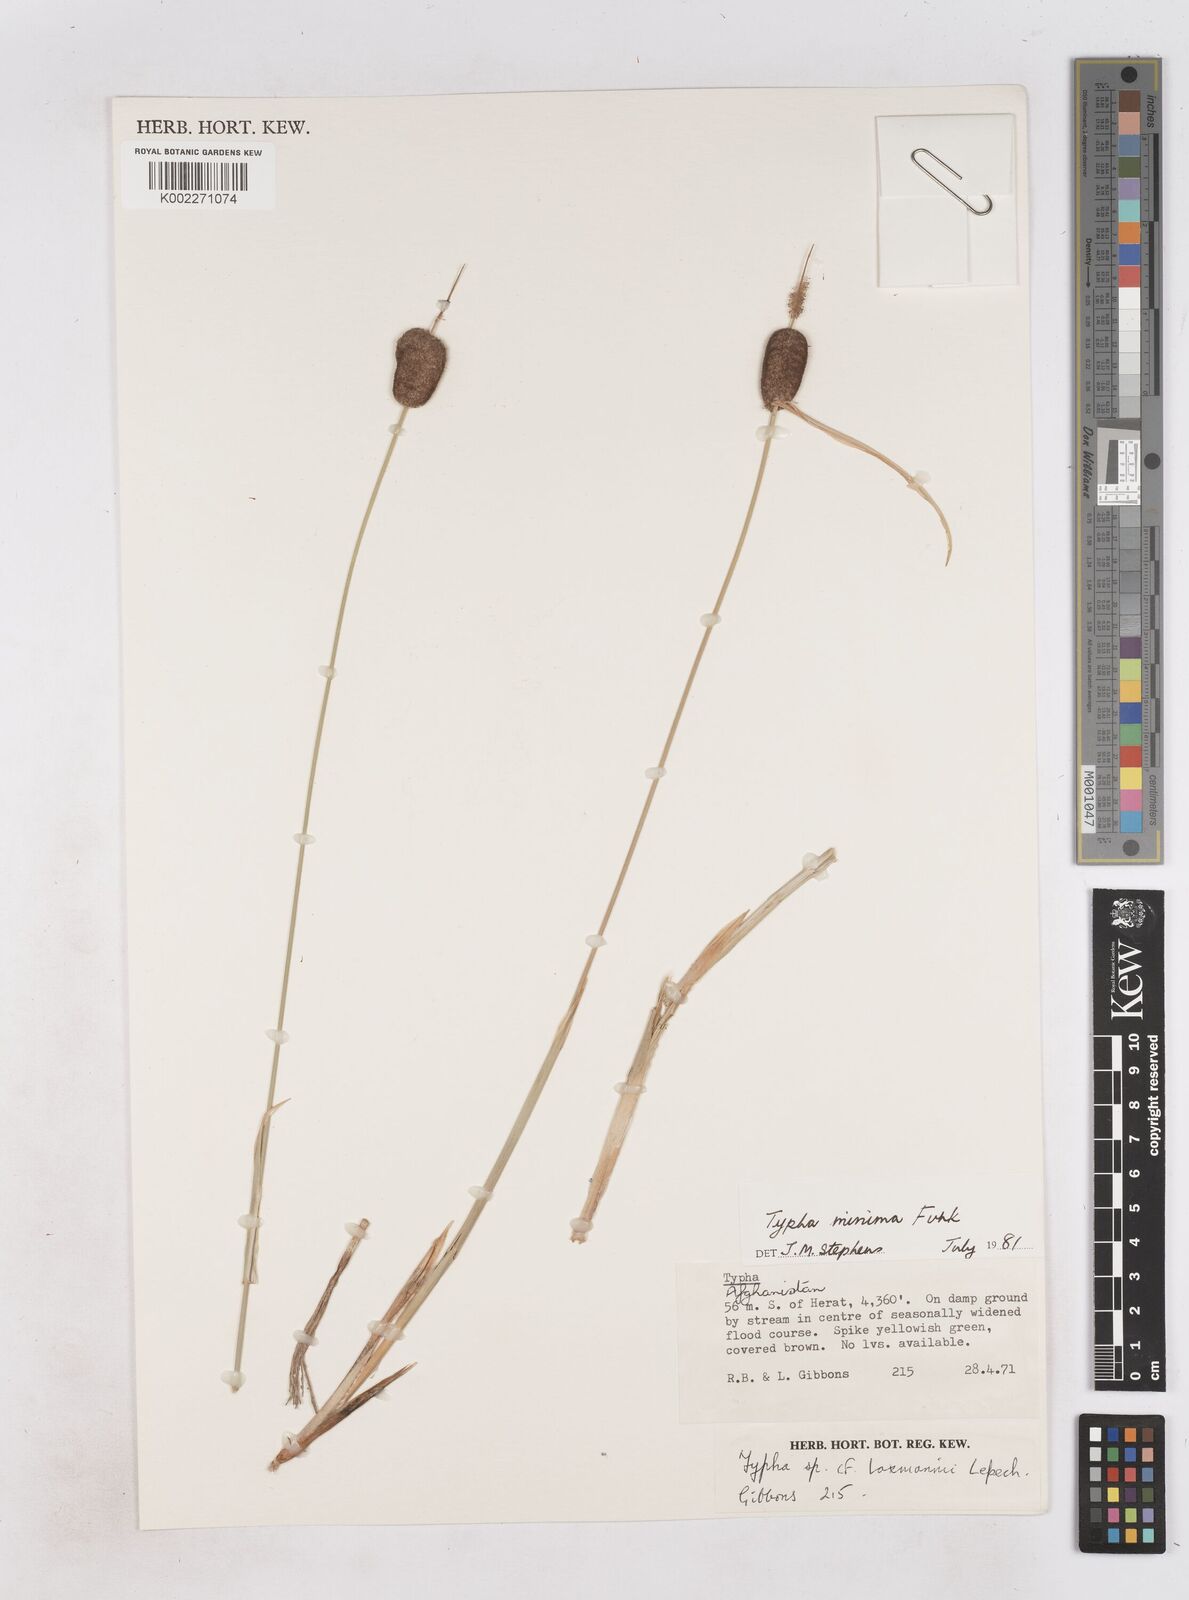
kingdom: Plantae
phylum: Tracheophyta
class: Liliopsida
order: Poales
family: Typhaceae
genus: Typha
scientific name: Typha minima
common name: Dwarf bulrush
